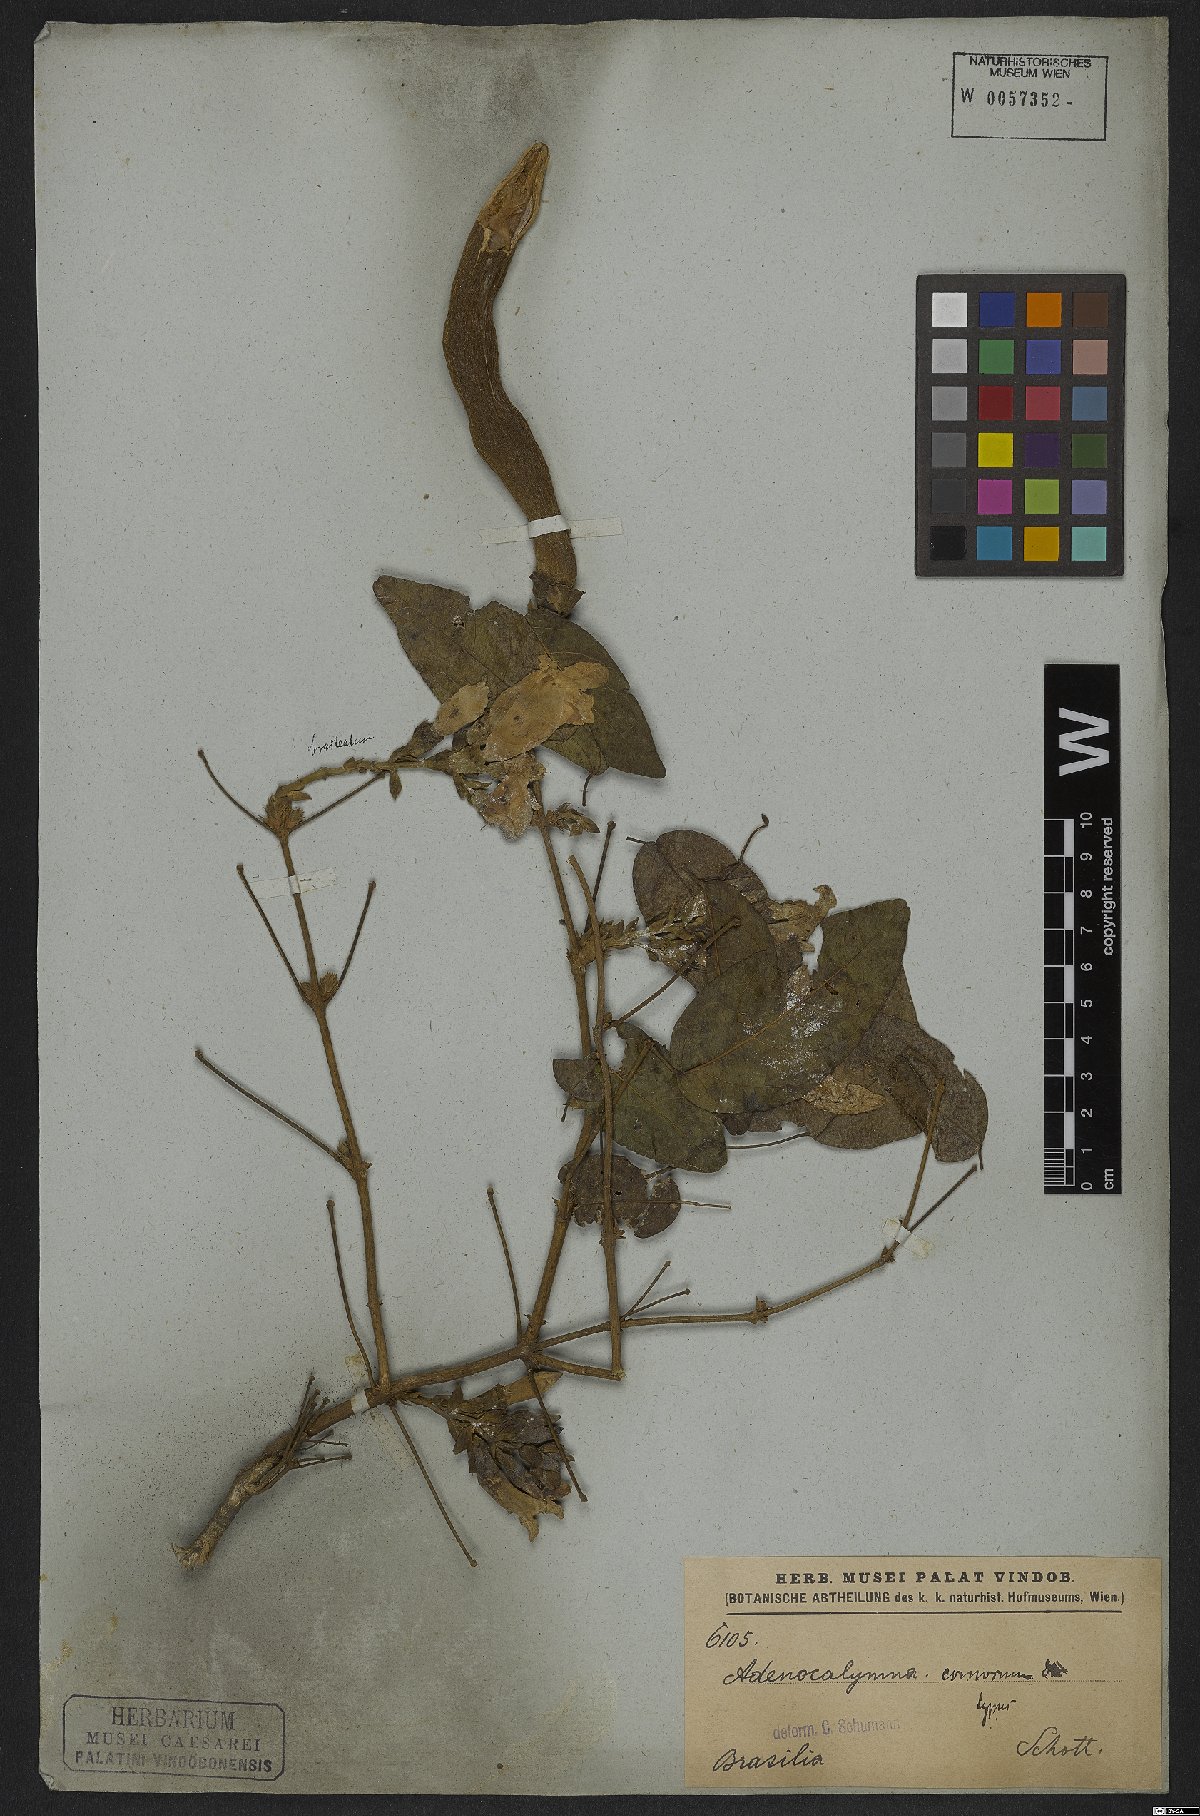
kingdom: Plantae
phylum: Tracheophyta
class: Magnoliopsida
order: Lamiales
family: Bignoniaceae
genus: Adenocalymma
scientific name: Adenocalymma acutissimum
